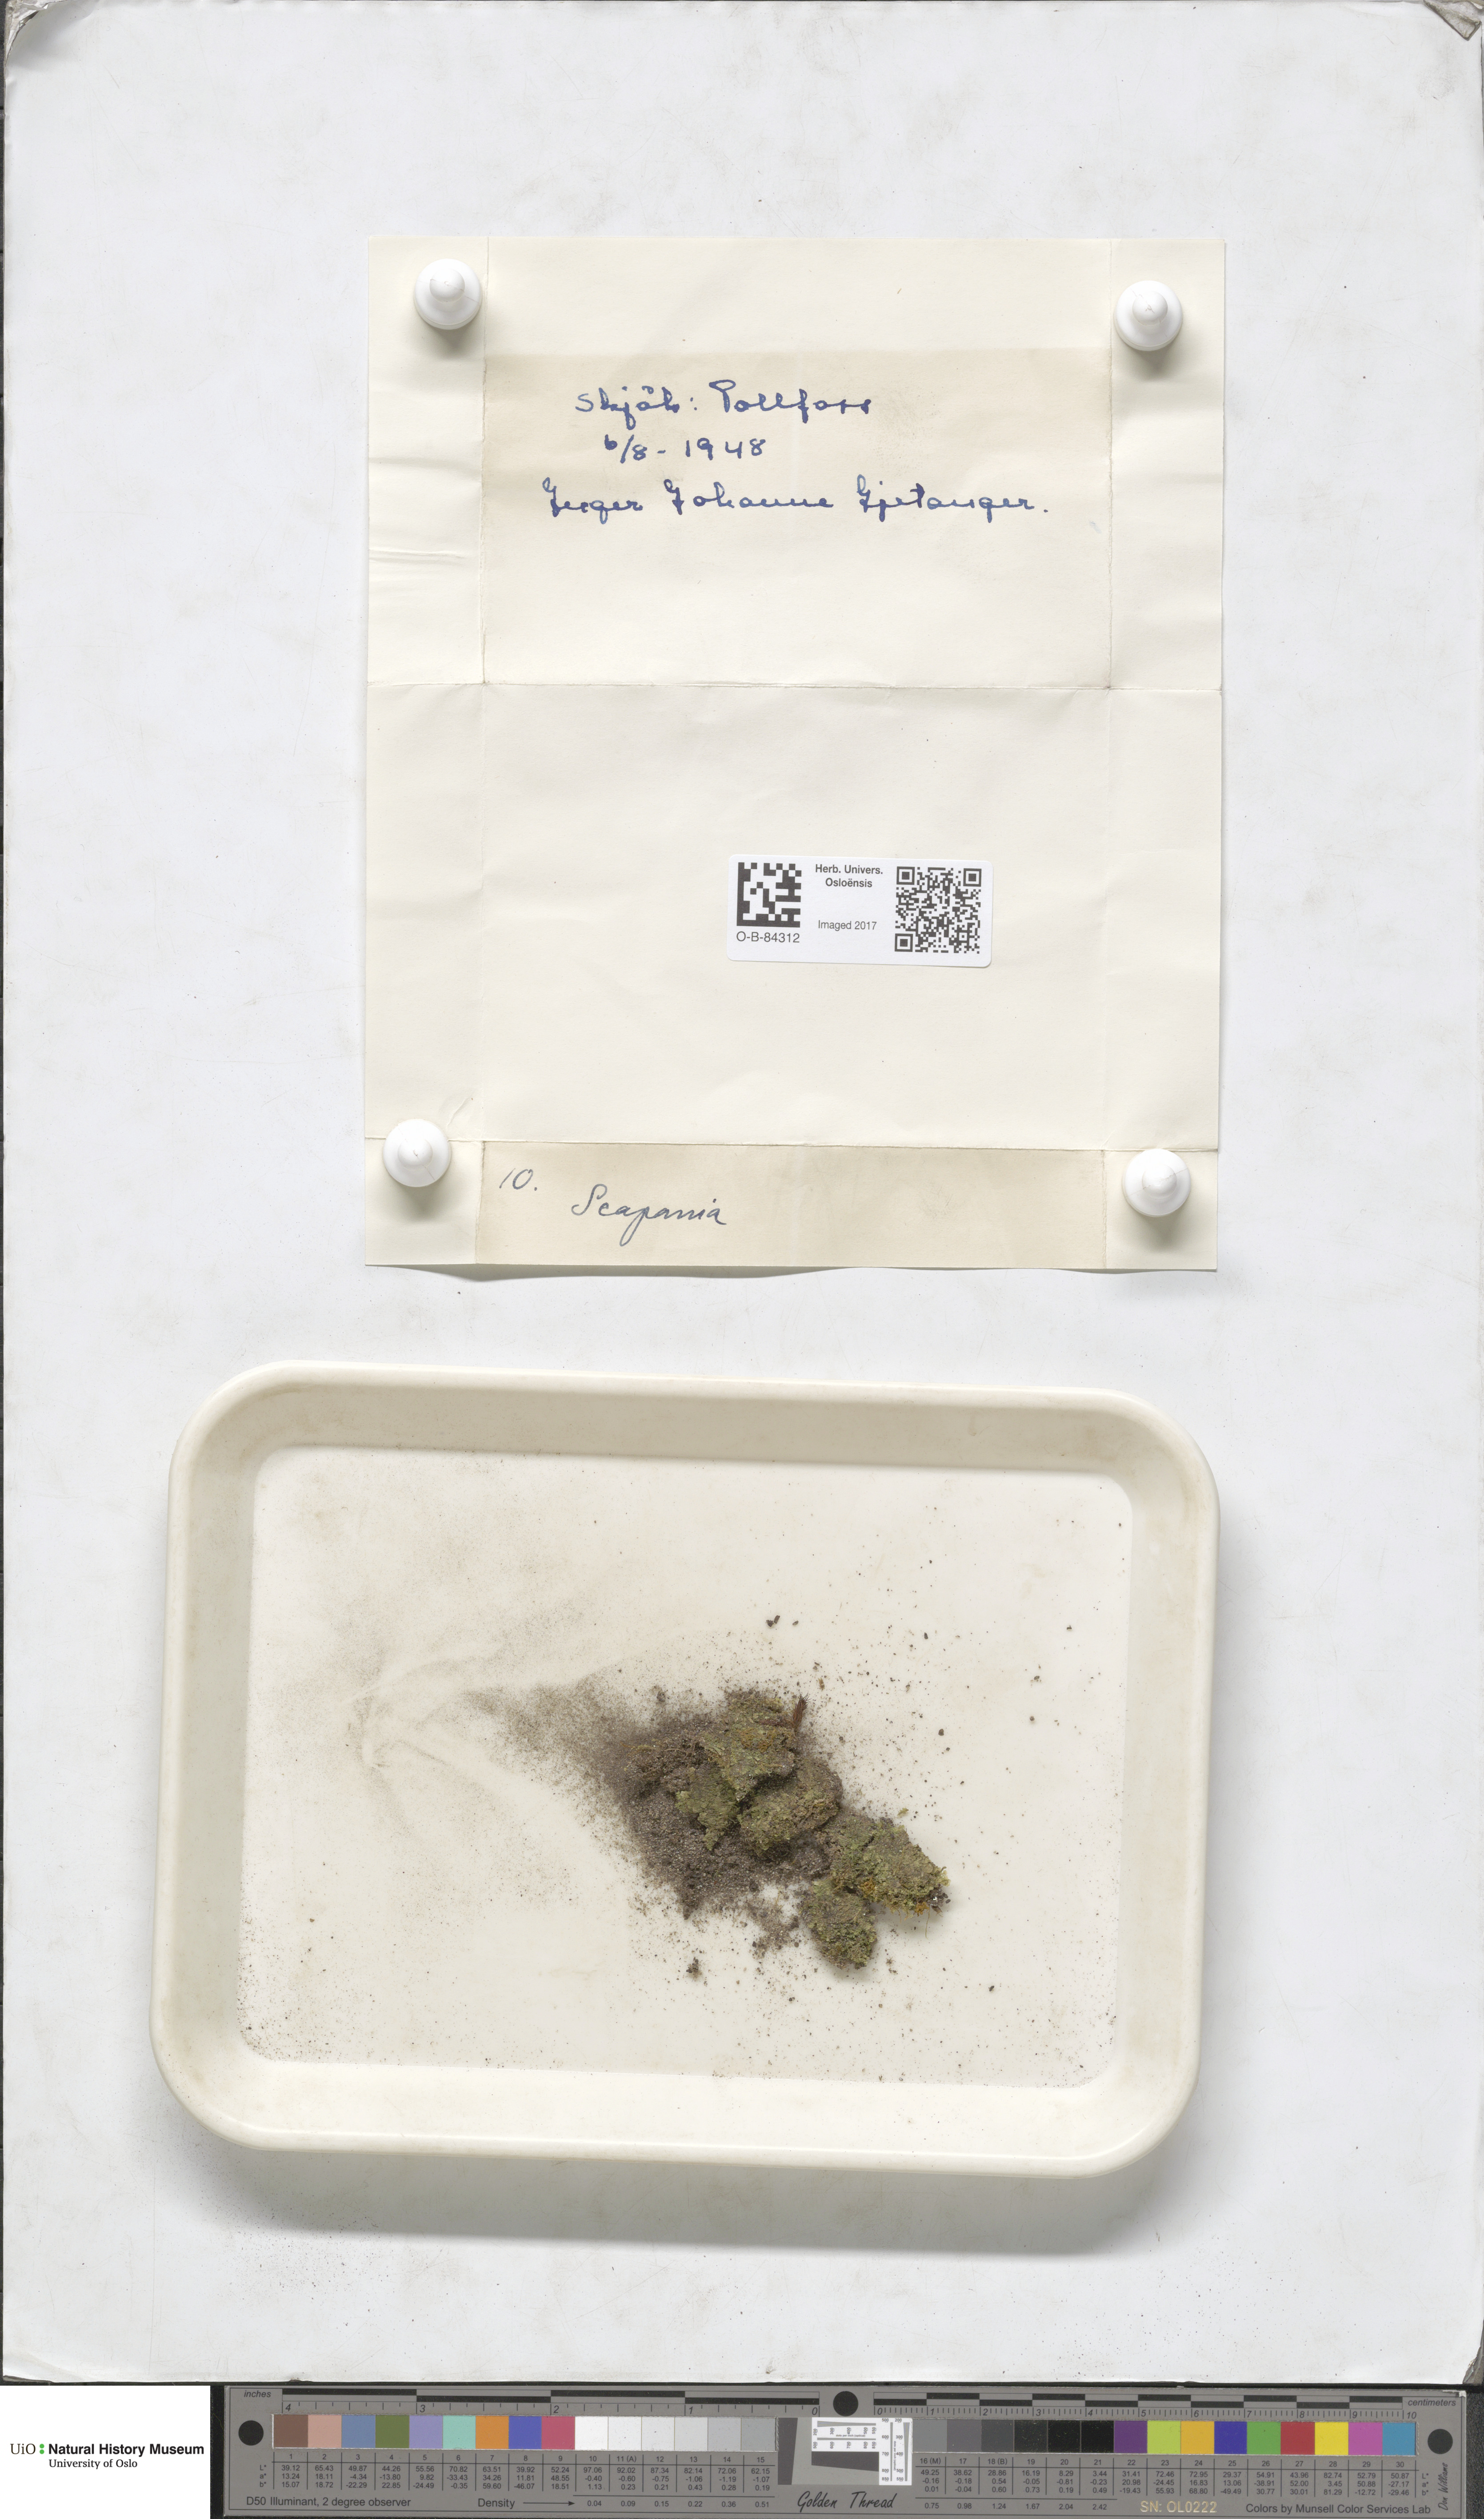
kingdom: Plantae
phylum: Marchantiophyta
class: Jungermanniopsida
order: Jungermanniales
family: Scapaniaceae
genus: Scapania
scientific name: Scapania
